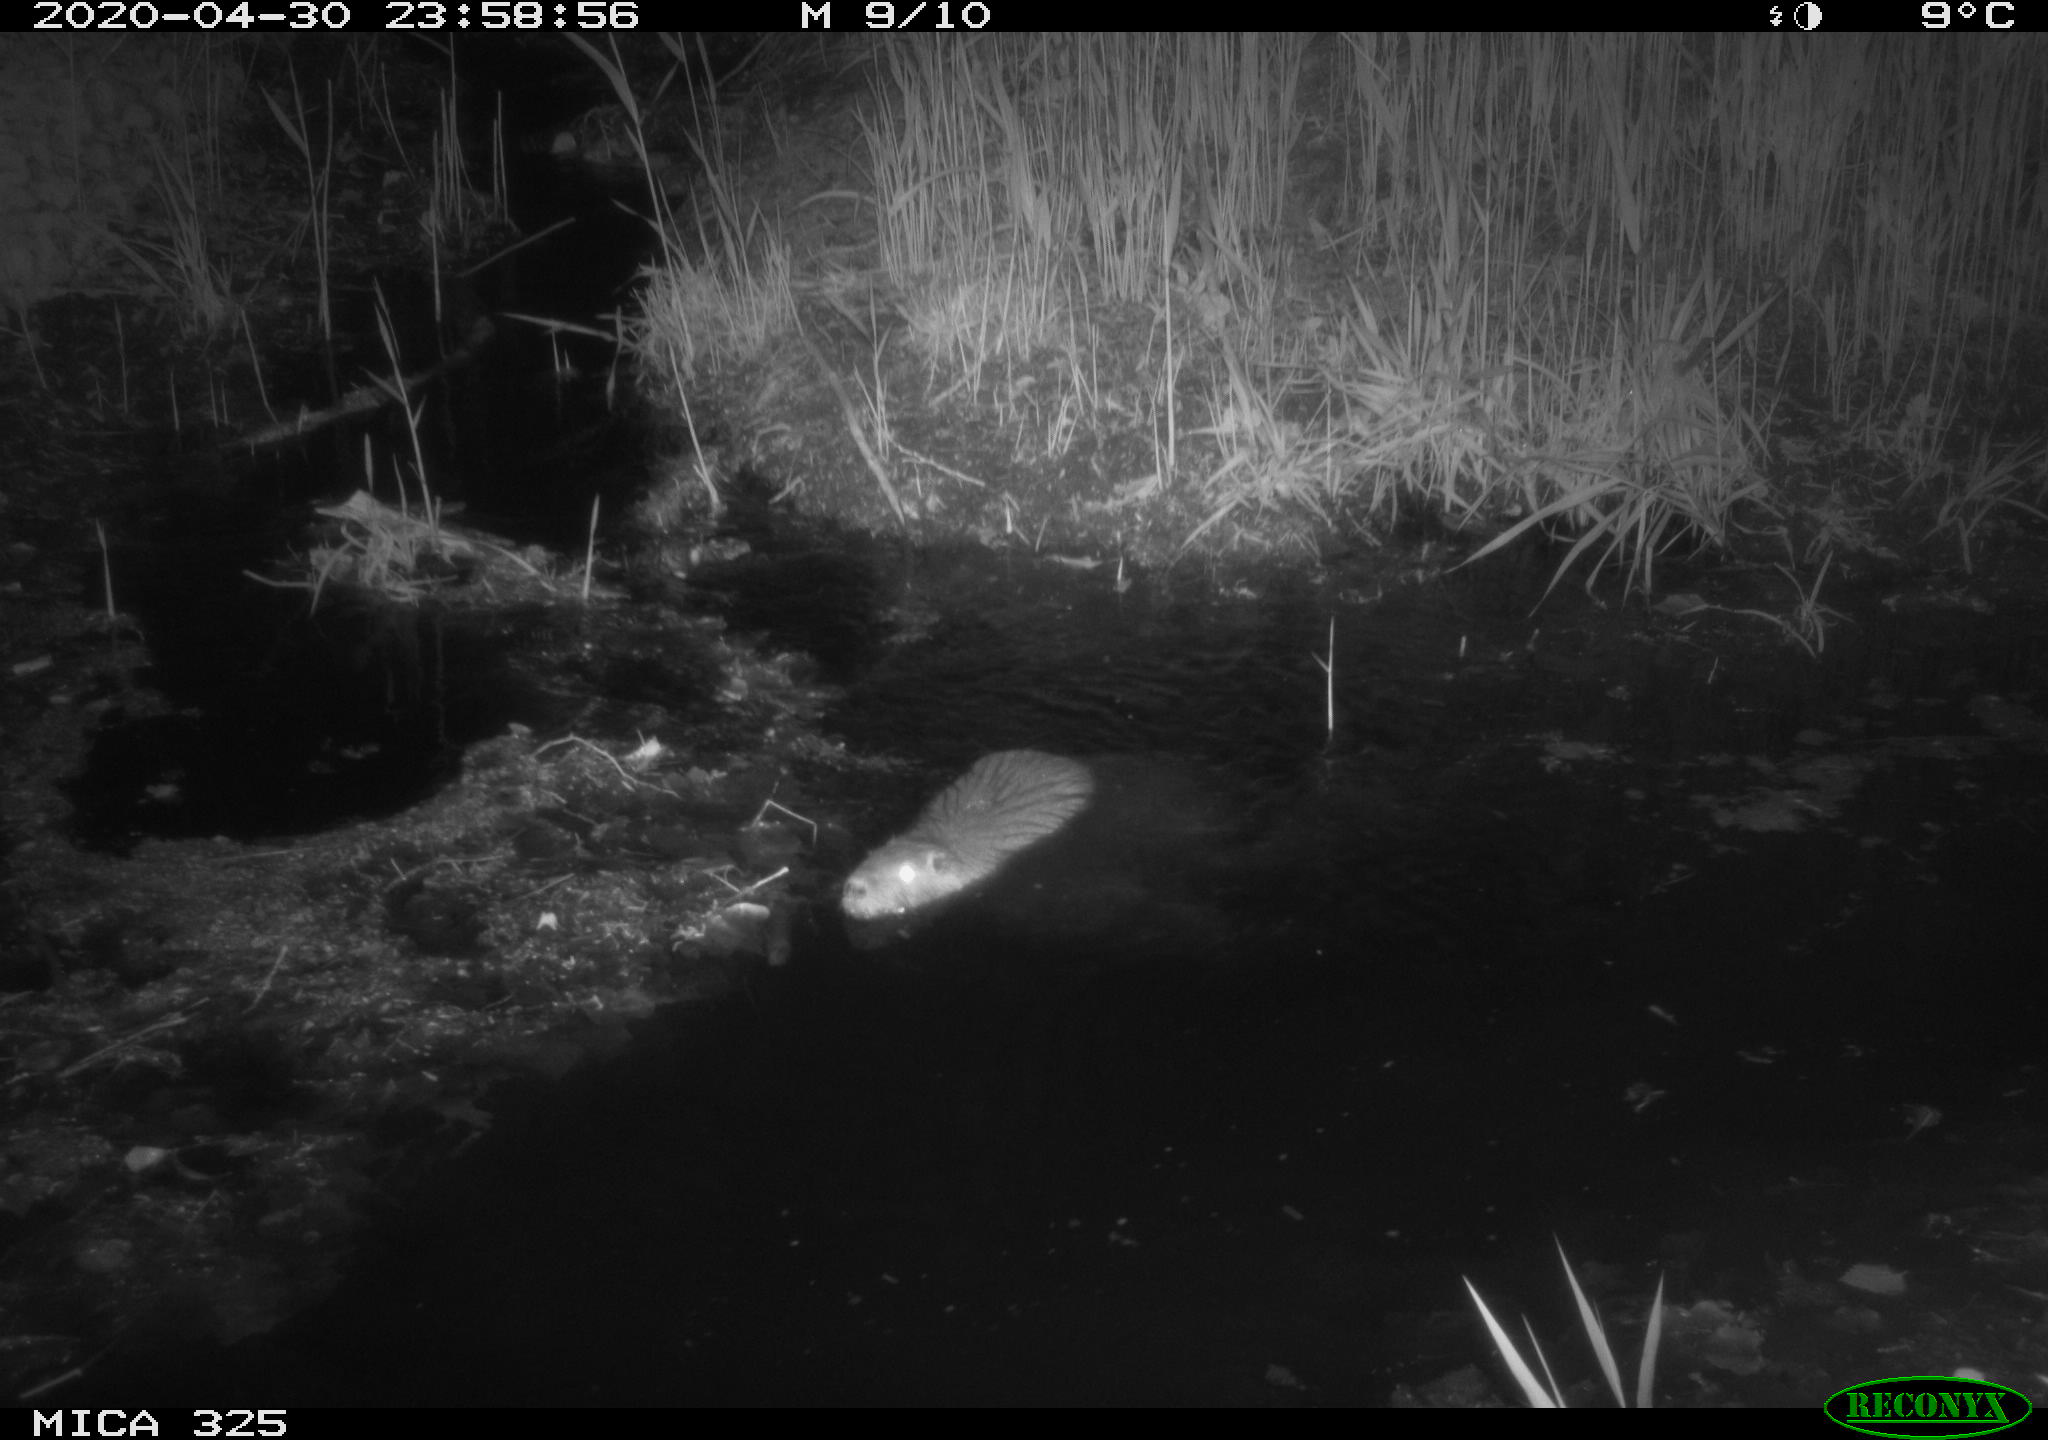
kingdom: Animalia
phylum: Chordata
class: Mammalia
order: Rodentia
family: Myocastoridae
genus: Myocastor
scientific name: Myocastor coypus
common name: Coypu
